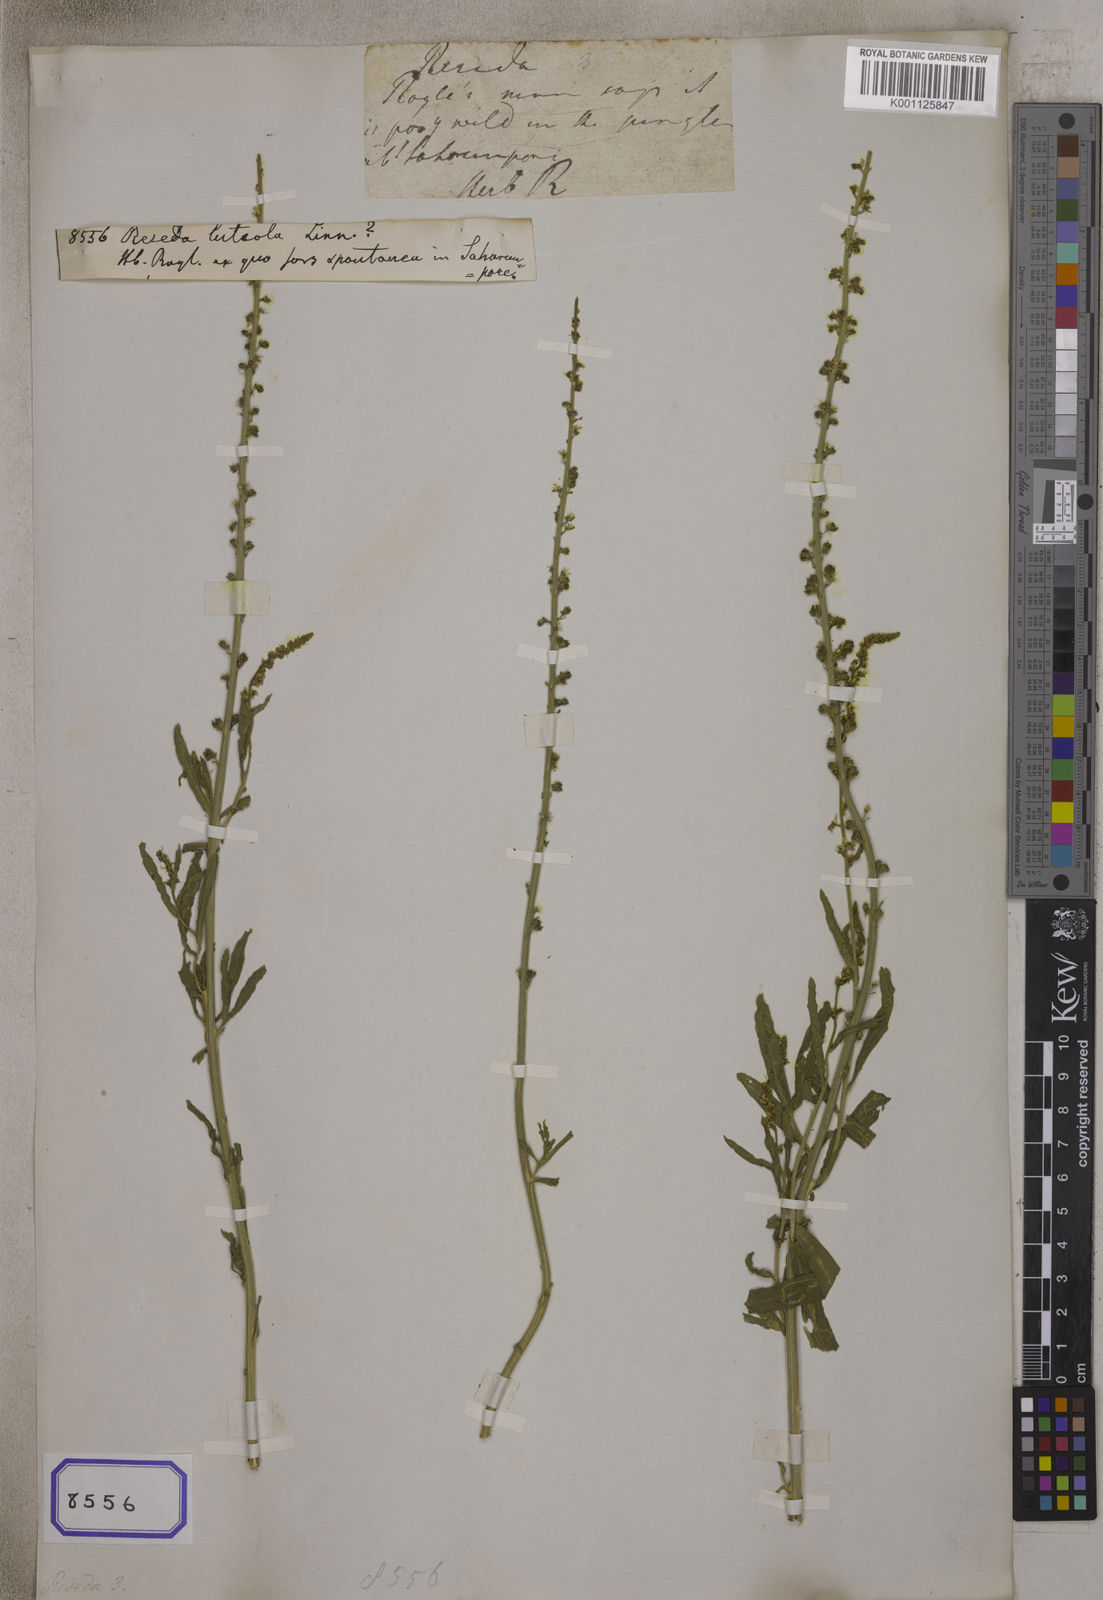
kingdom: Plantae
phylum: Tracheophyta
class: Magnoliopsida
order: Brassicales
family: Resedaceae
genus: Reseda
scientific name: Reseda luteola
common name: Weld
